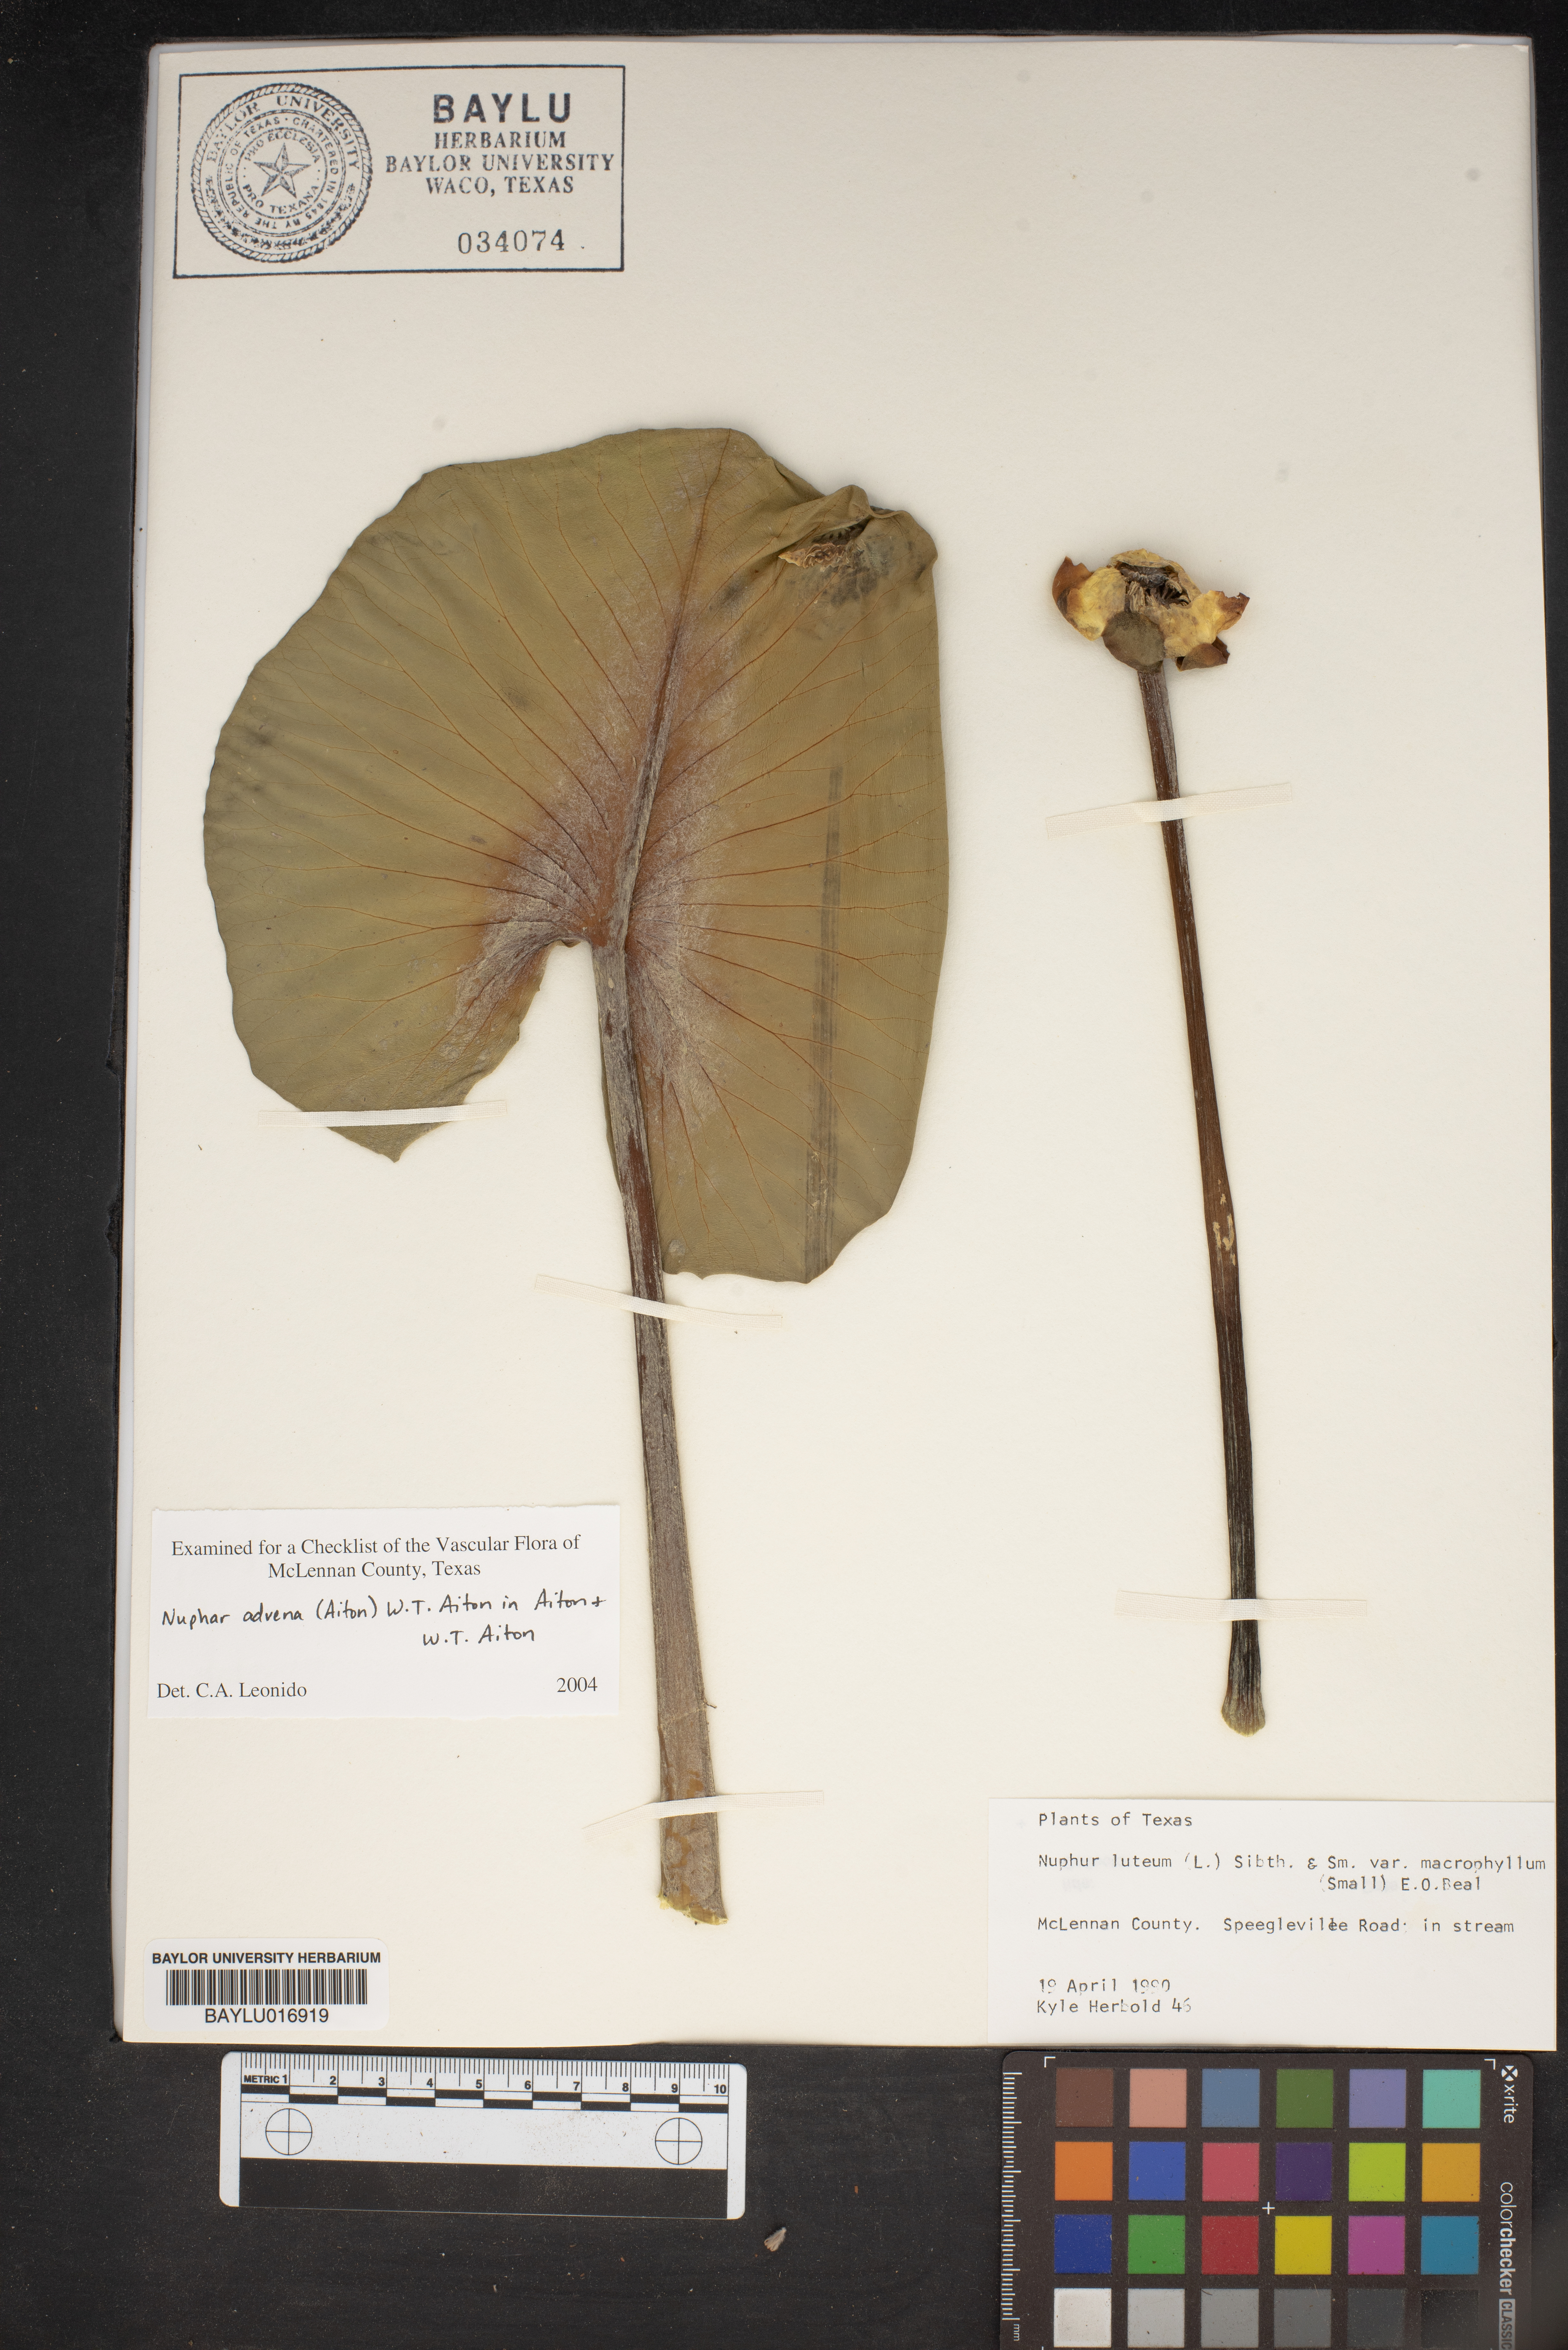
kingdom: Plantae
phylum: Tracheophyta
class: Magnoliopsida
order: Nymphaeales
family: Nymphaeaceae
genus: Nuphar
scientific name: Nuphar advena
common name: Spatter-dock
